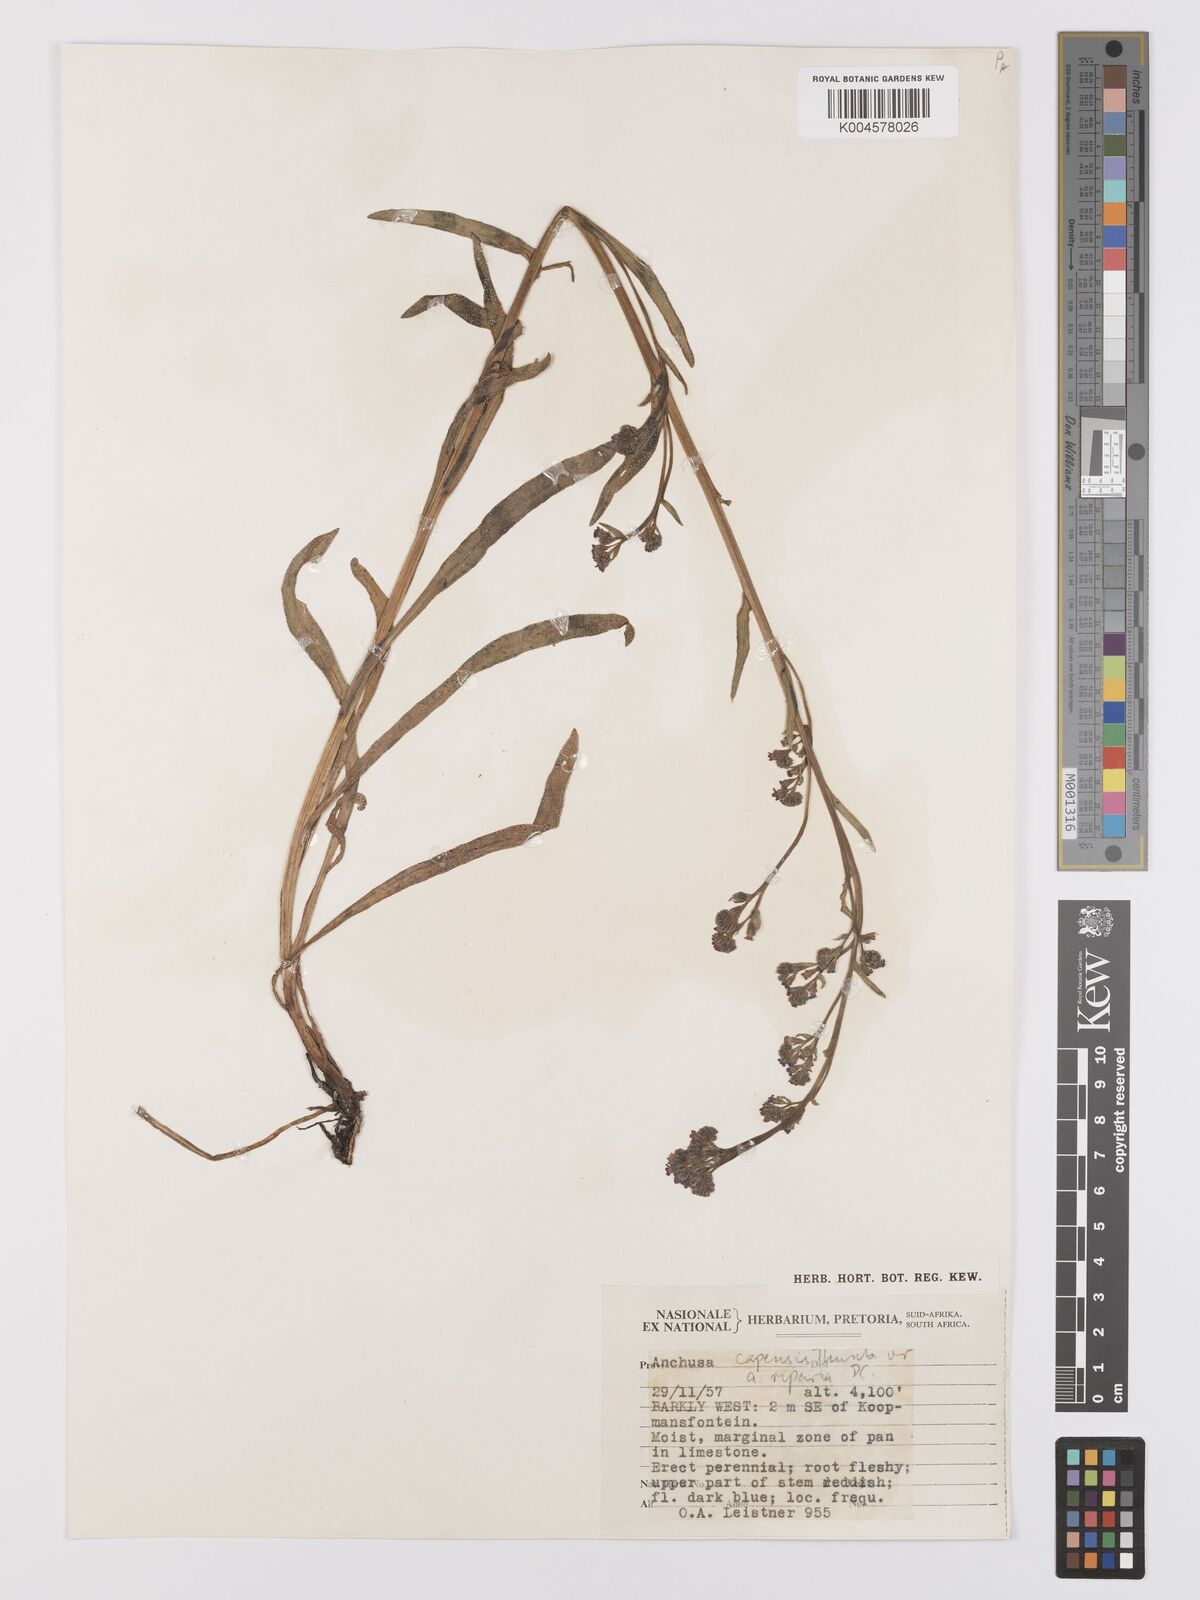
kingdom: Plantae
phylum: Tracheophyta
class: Magnoliopsida
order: Boraginales
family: Boraginaceae
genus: Anchusa
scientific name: Anchusa capensis
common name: Cape bugloss
